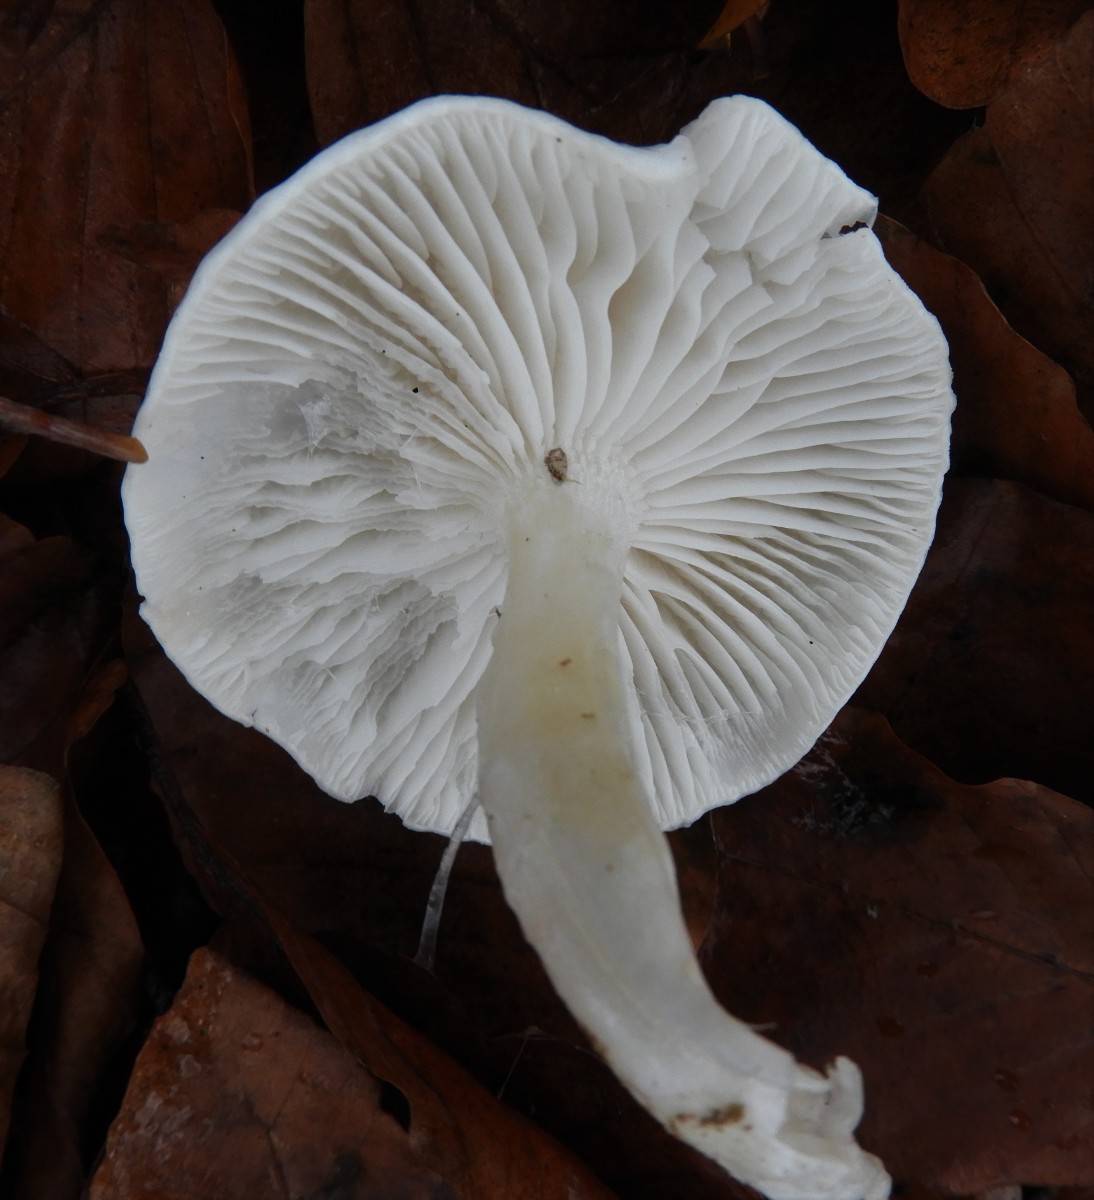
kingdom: Fungi
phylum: Basidiomycota
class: Agaricomycetes
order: Agaricales
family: Hygrophoraceae
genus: Hygrophorus
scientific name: Hygrophorus eburneus
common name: elfenbens-sneglehat
